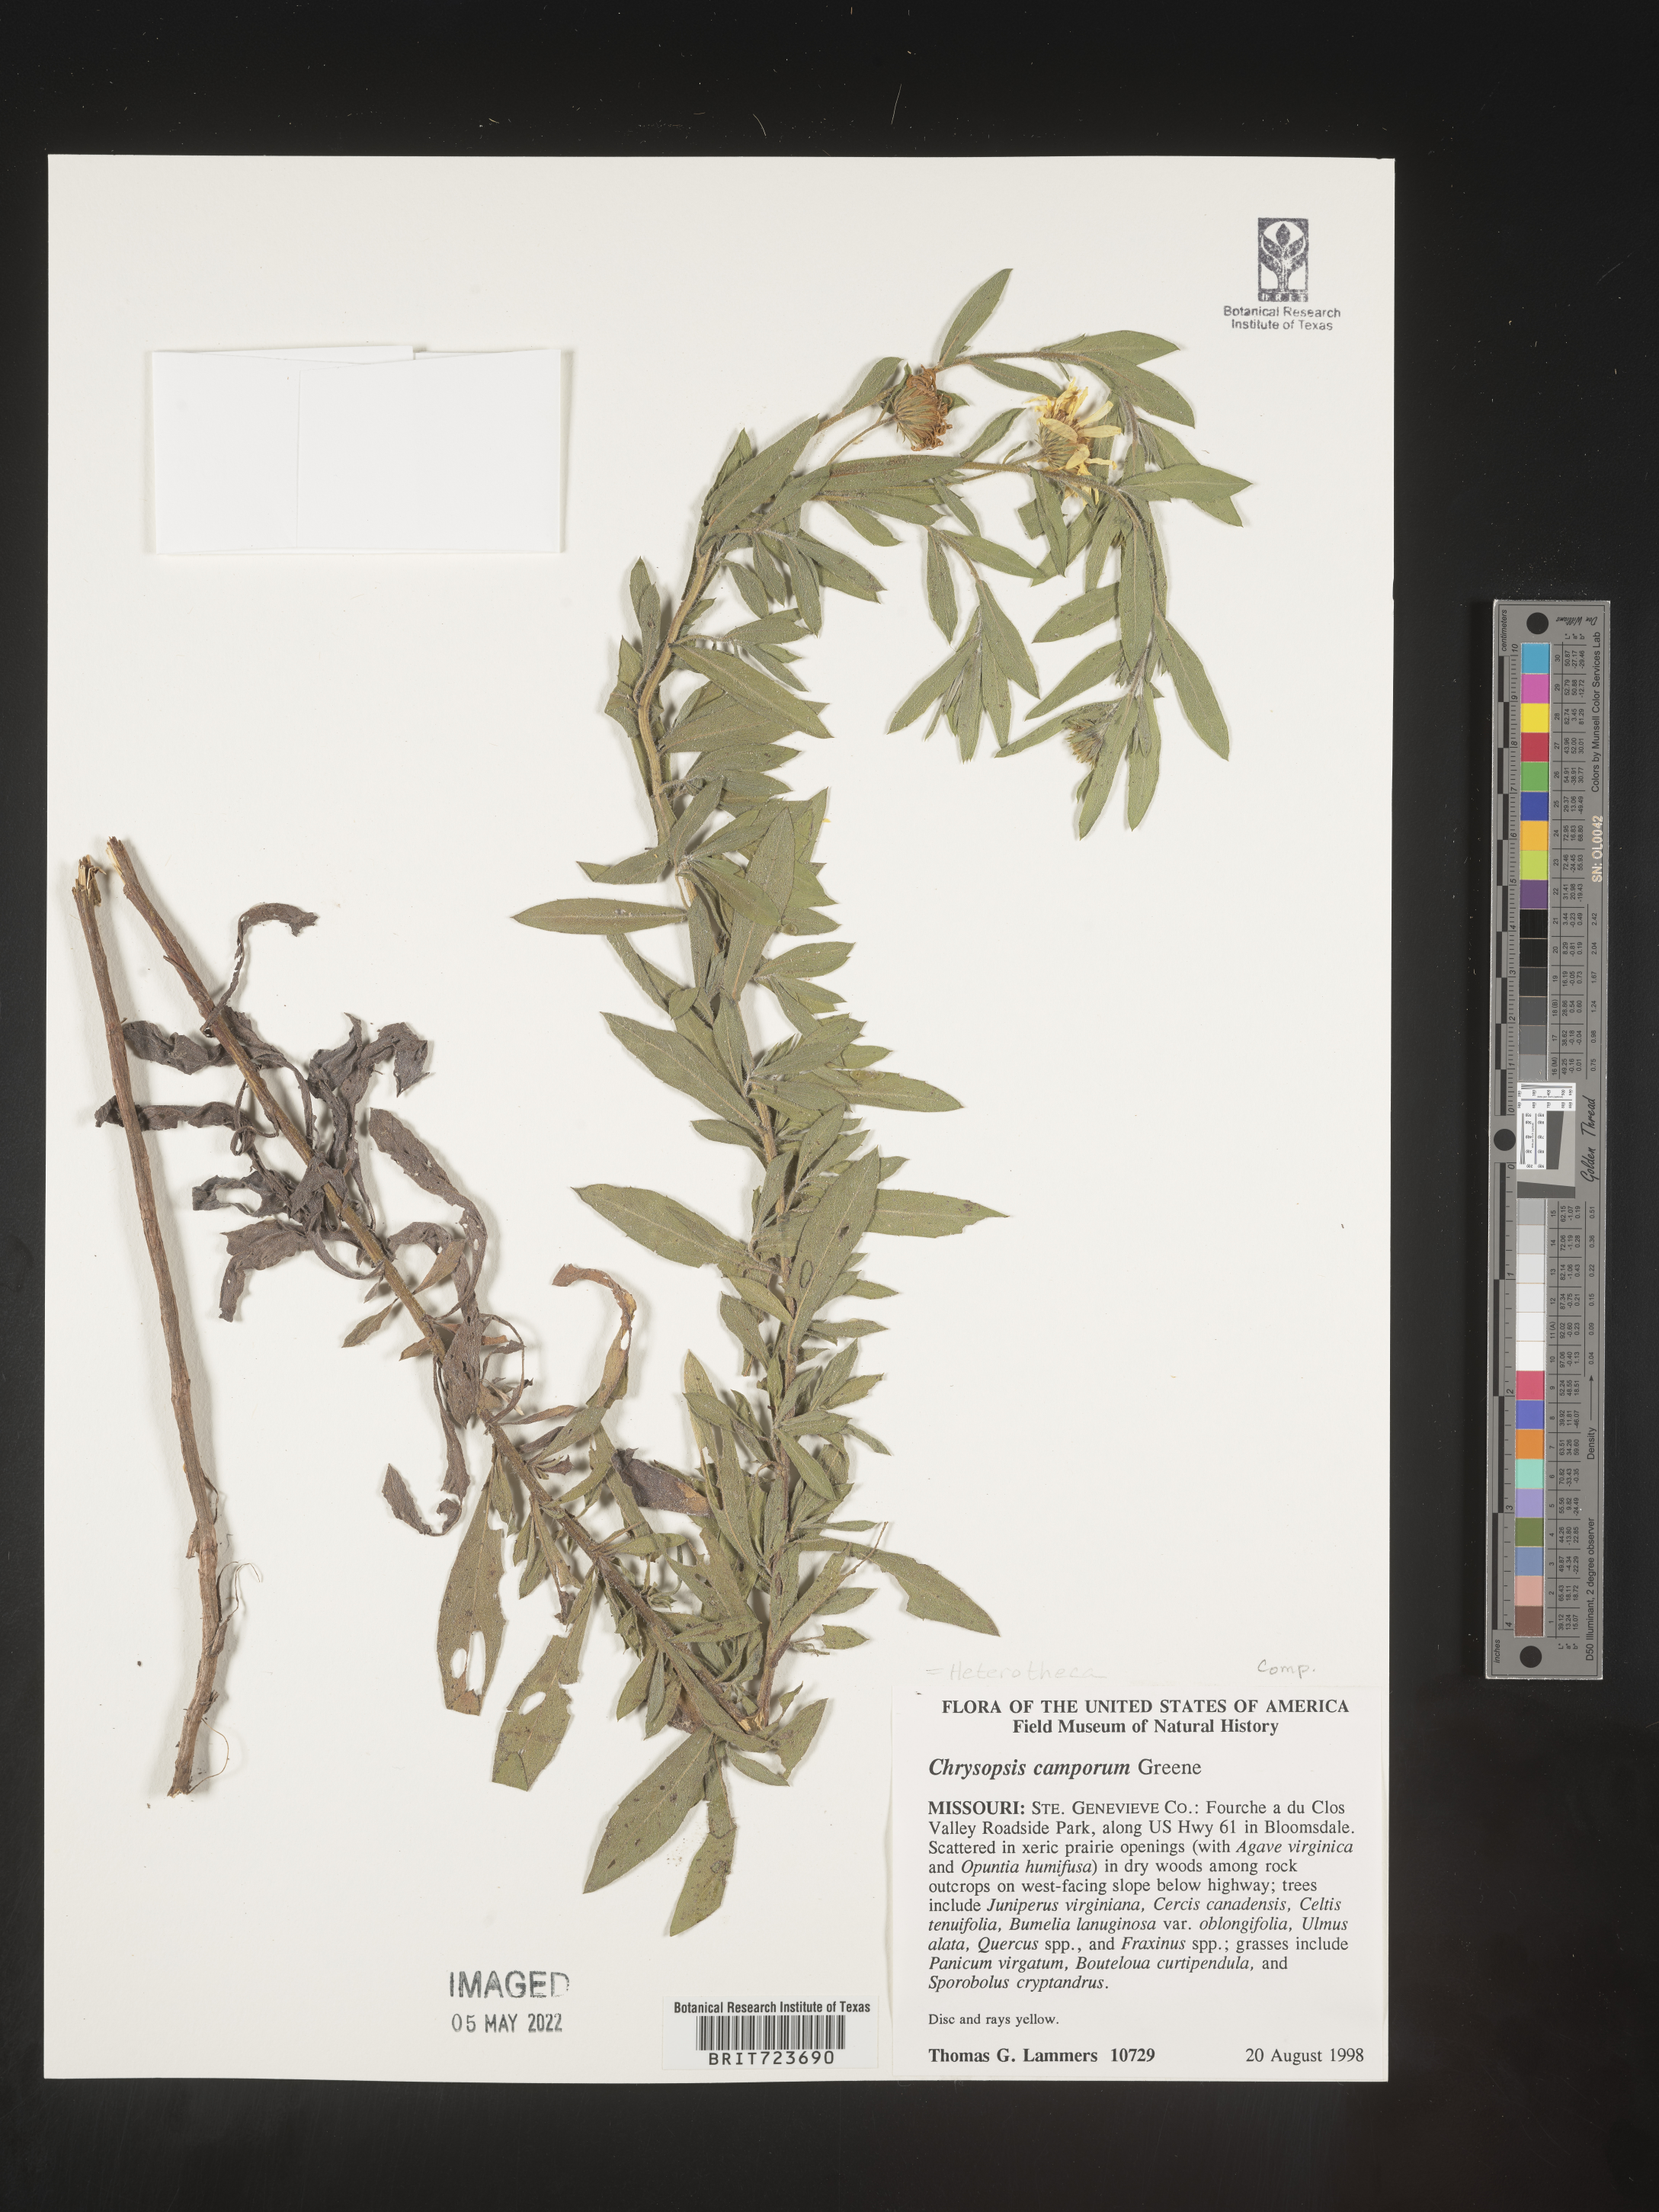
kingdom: Plantae
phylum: Tracheophyta
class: Magnoliopsida
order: Asterales
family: Asteraceae
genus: Heterotheca
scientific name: Heterotheca camporum
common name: Prairie golden-aster
